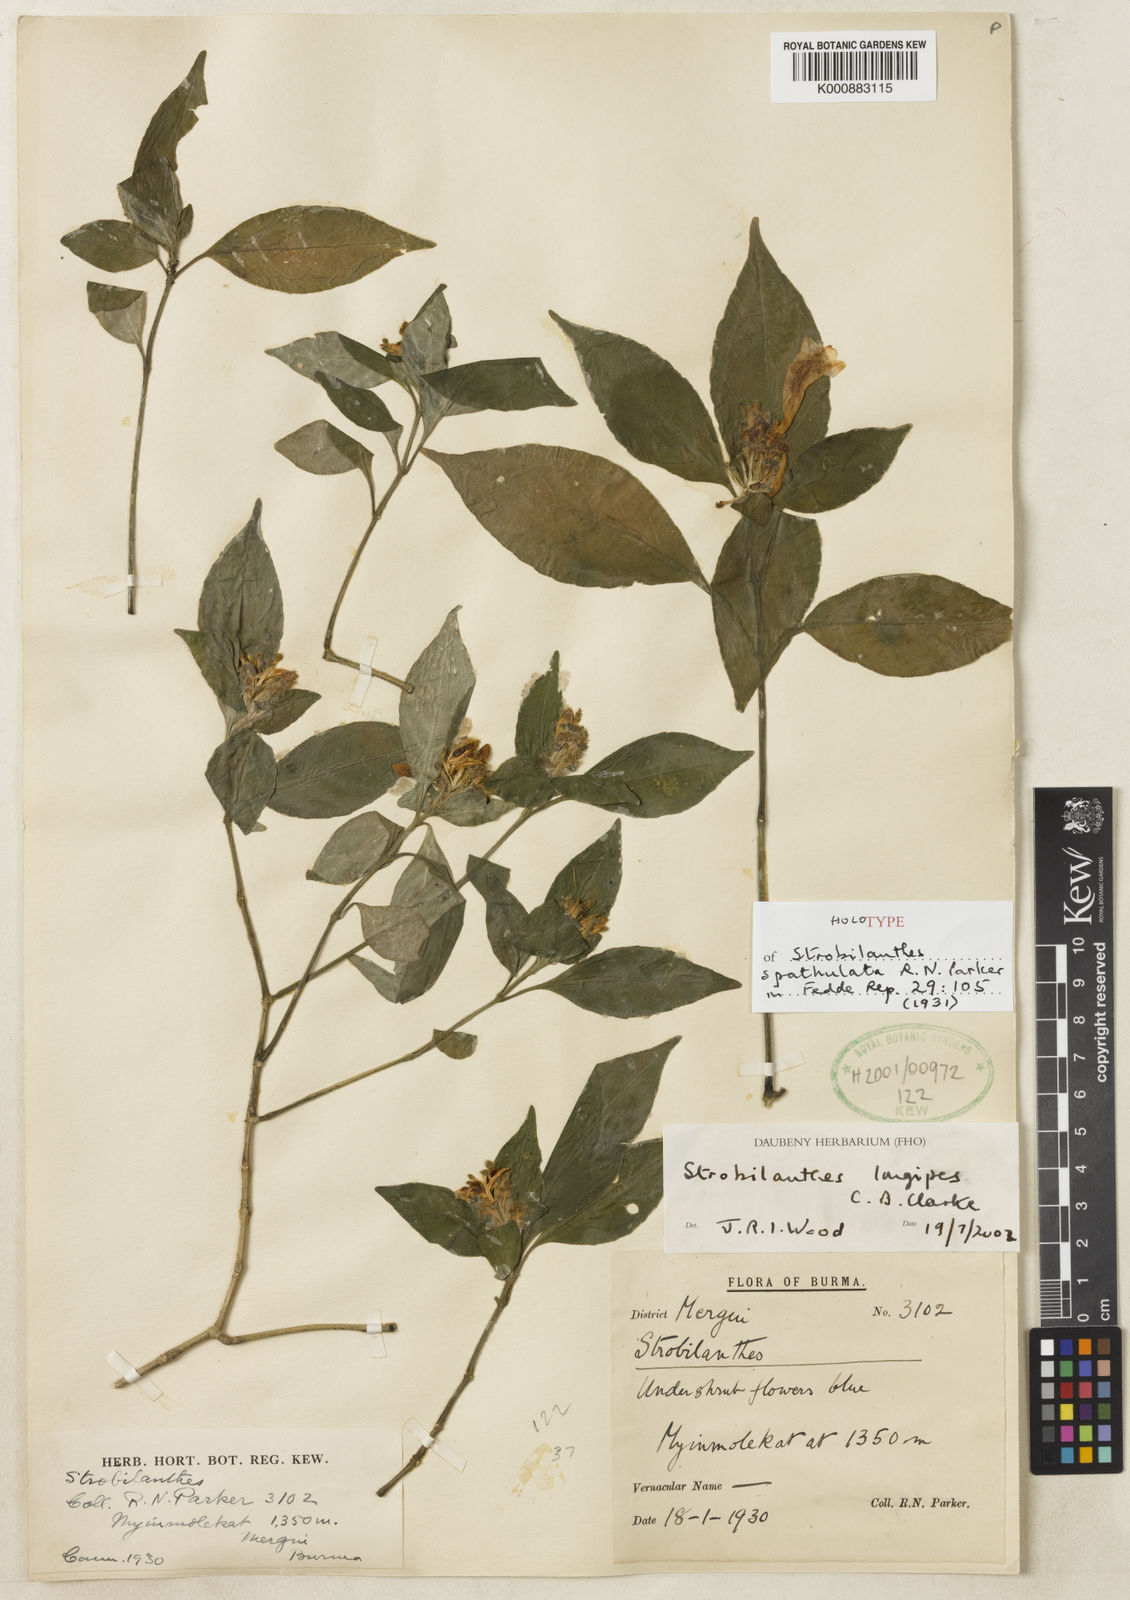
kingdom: Plantae
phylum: Tracheophyta
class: Magnoliopsida
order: Lamiales
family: Acanthaceae
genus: Strobilanthes
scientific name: Strobilanthes repanda
